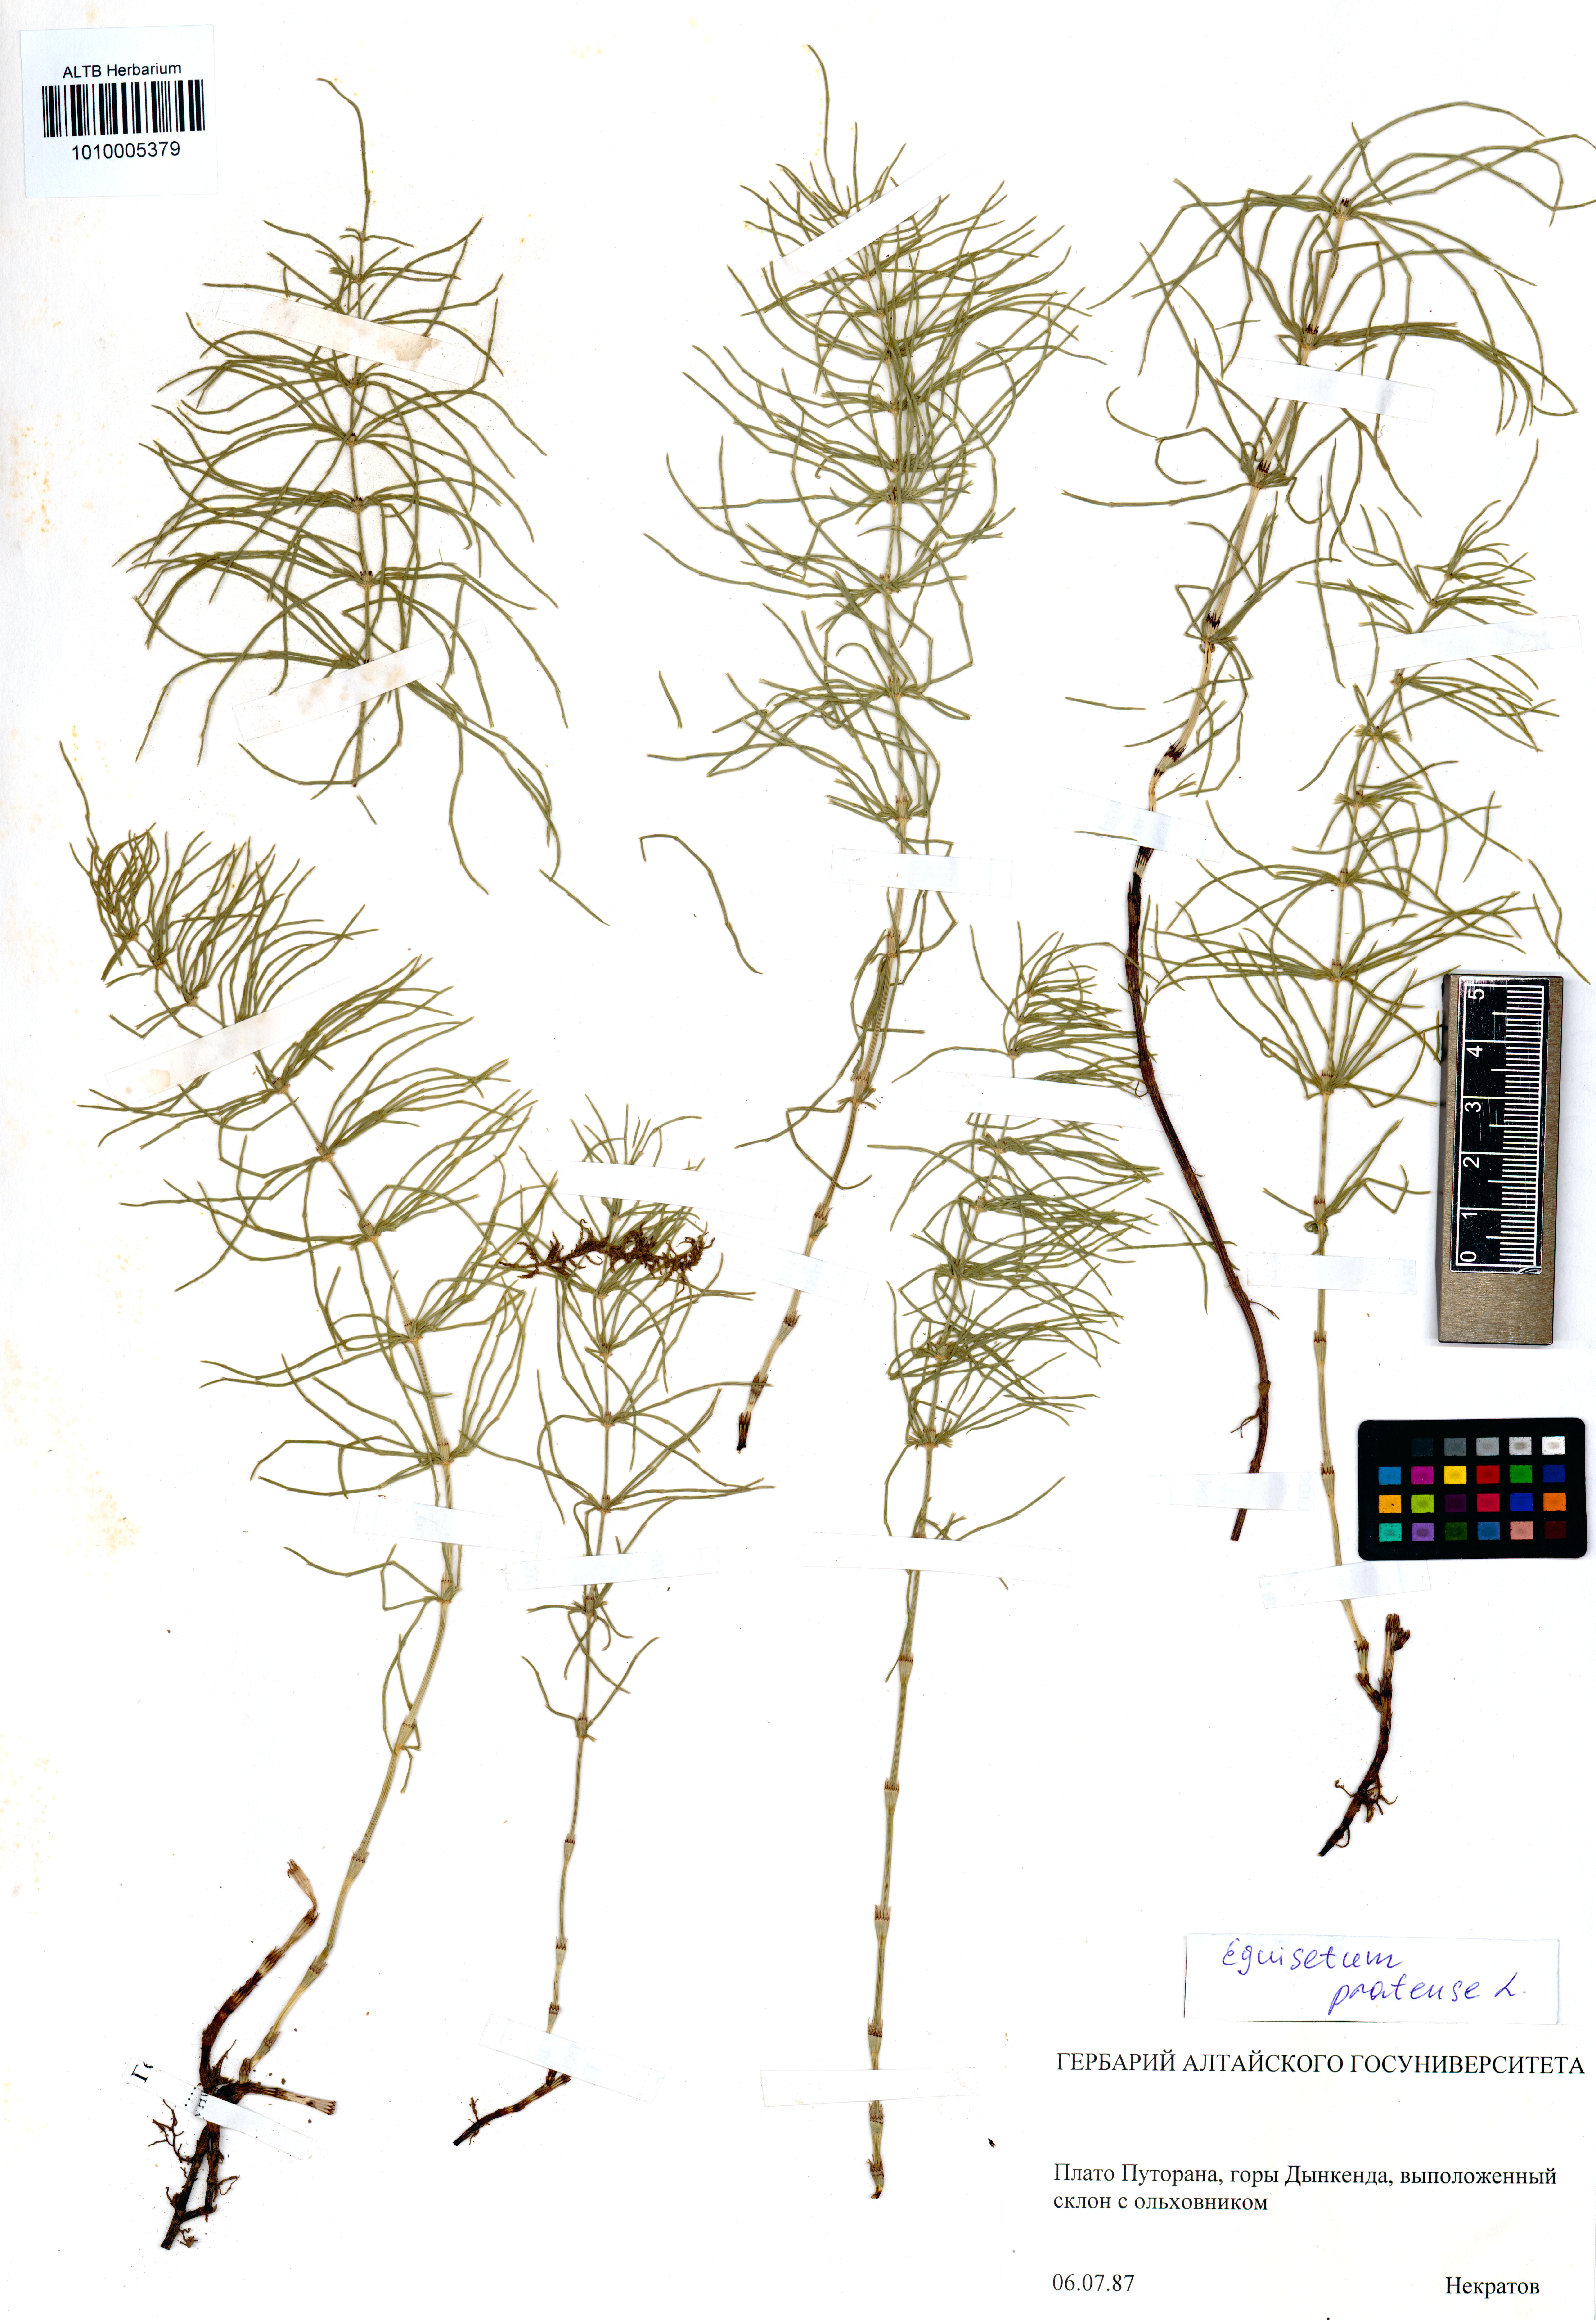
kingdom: Plantae
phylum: Tracheophyta
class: Polypodiopsida
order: Equisetales
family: Equisetaceae
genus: Equisetum
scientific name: Equisetum pratense
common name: Meadow horsetail
